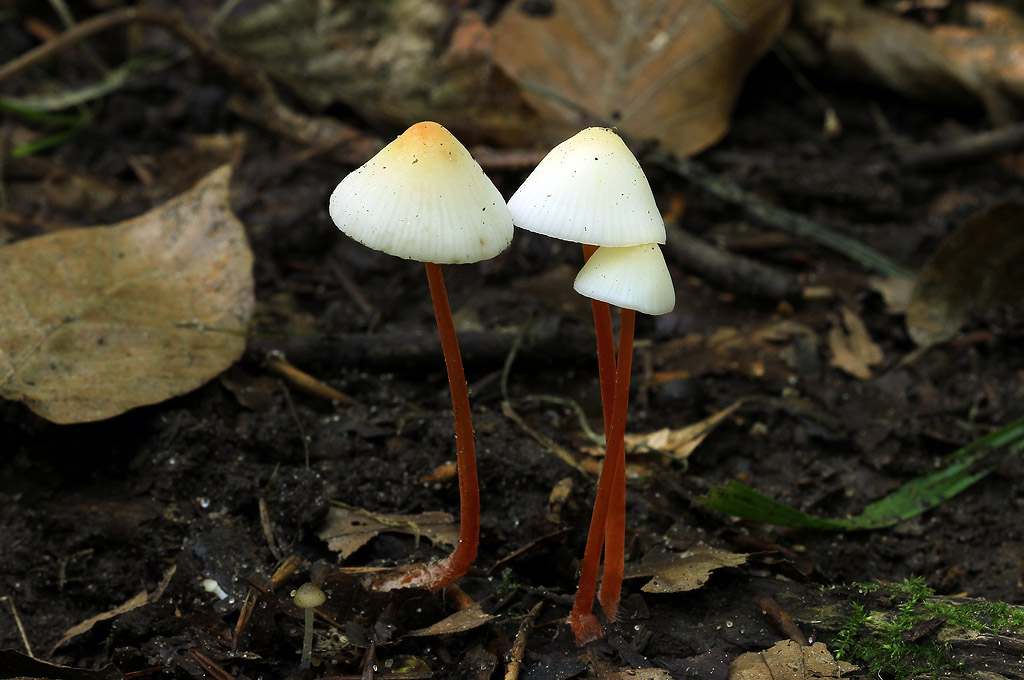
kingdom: Fungi
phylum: Basidiomycota
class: Agaricomycetes
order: Agaricales
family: Mycenaceae
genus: Mycena
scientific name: Mycena crocata
